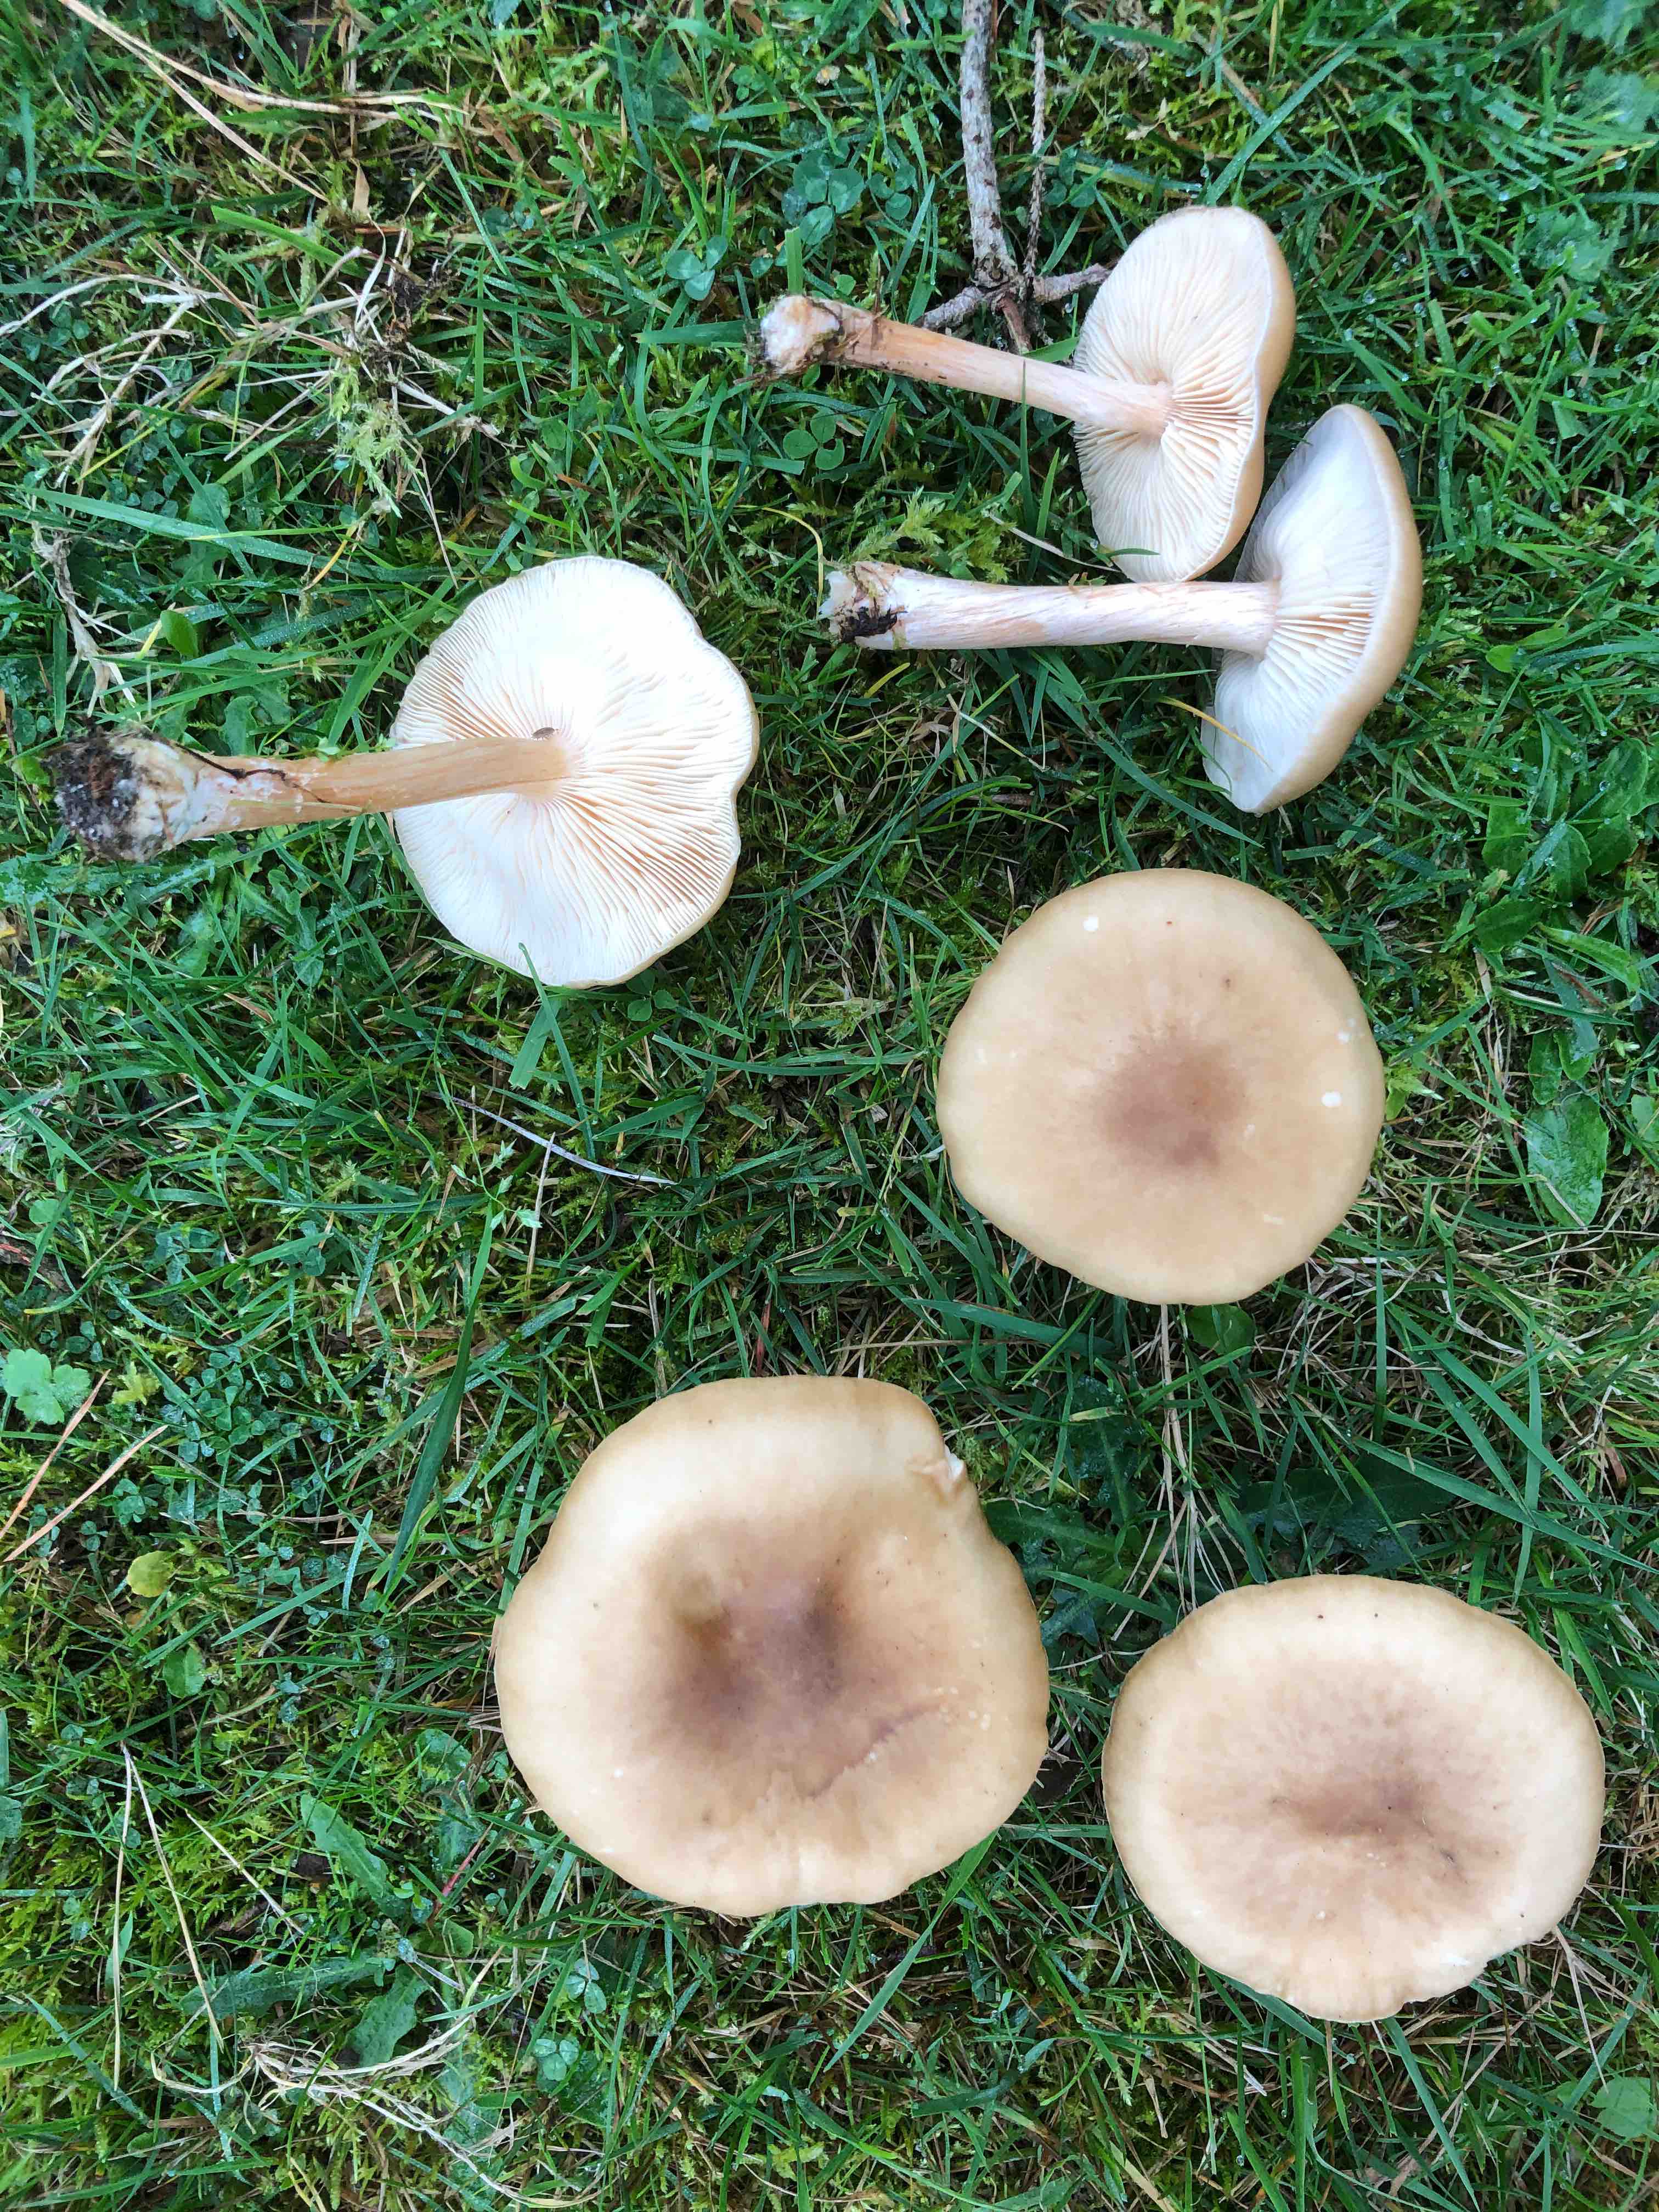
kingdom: Fungi
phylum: Basidiomycota
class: Agaricomycetes
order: Agaricales
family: Tricholomataceae
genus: Melanoleuca
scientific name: Melanoleuca cognata
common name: gyldengrå munkehat
